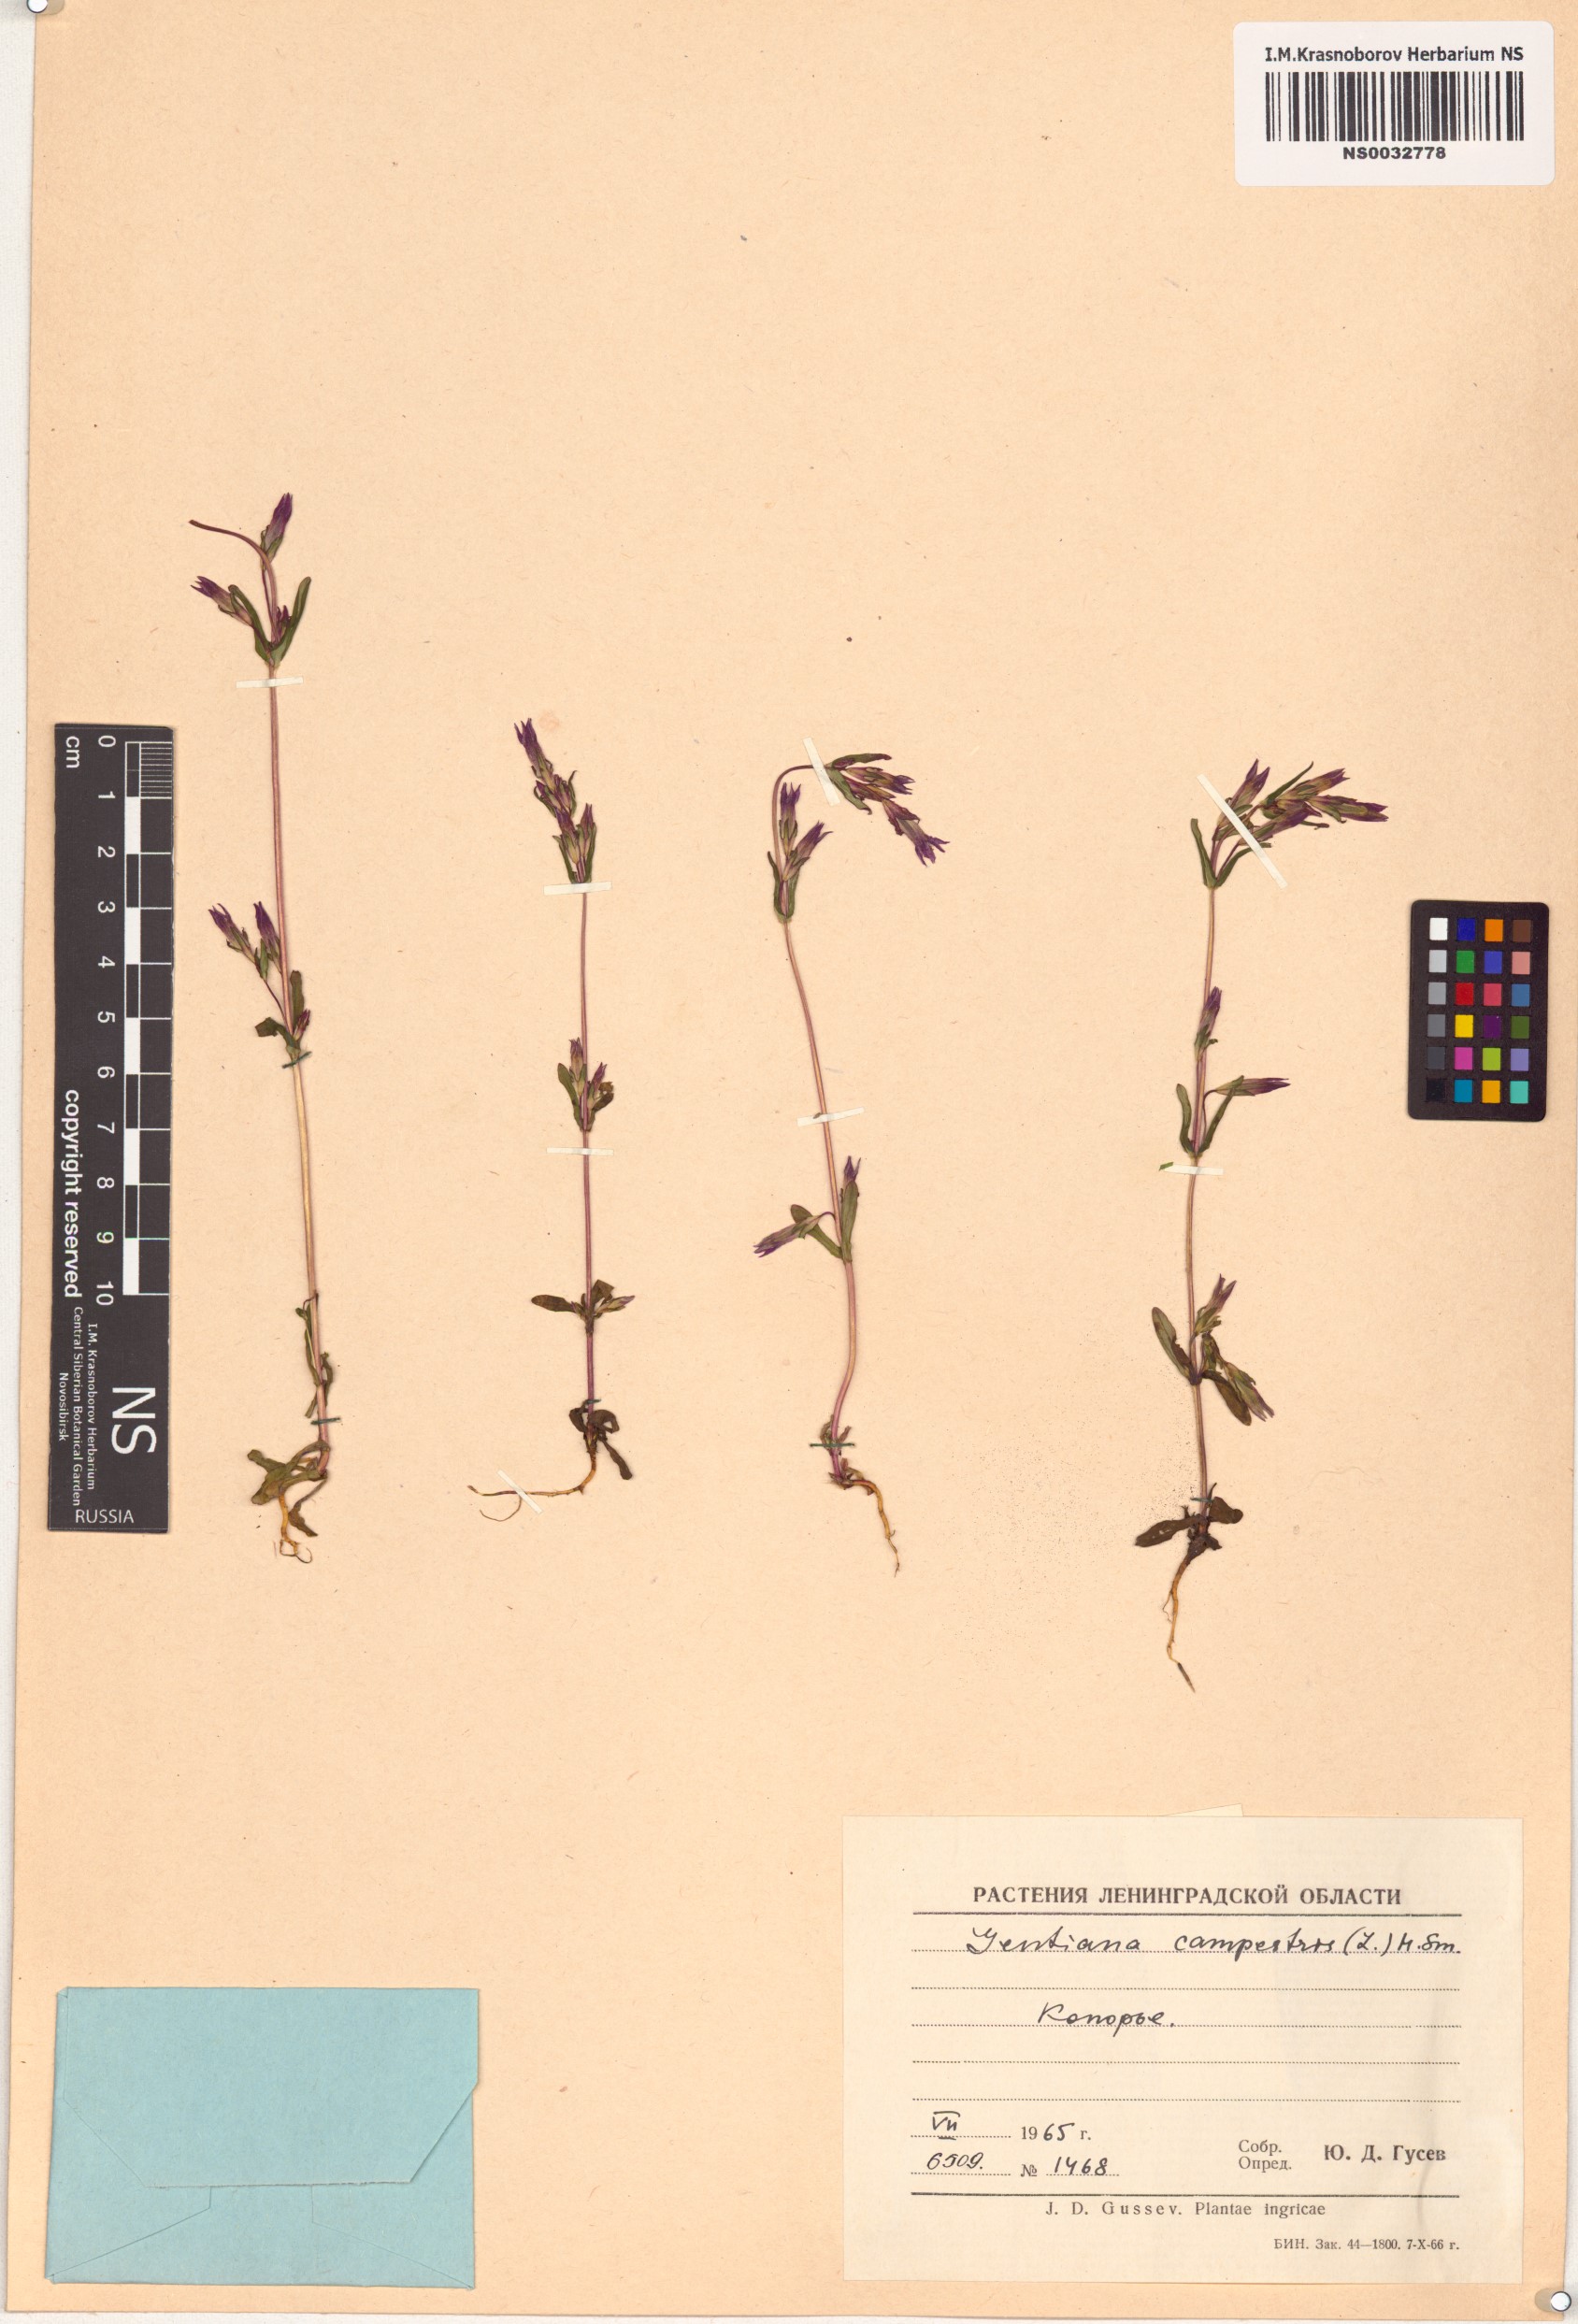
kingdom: Plantae
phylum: Tracheophyta
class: Magnoliopsida
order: Gentianales
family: Gentianaceae
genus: Gentianella
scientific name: Gentianella campestris
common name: Field gentian
